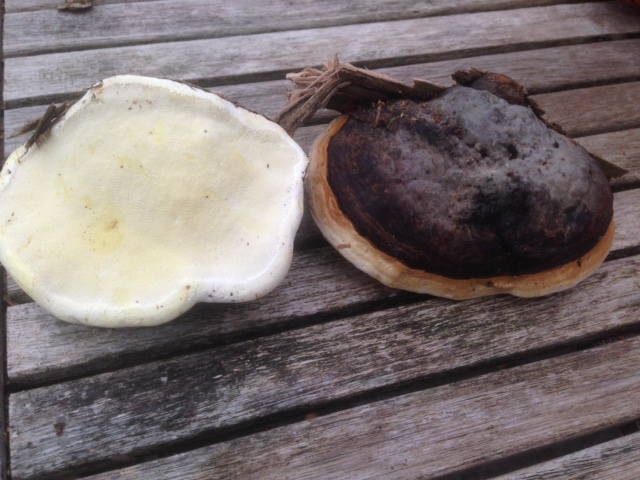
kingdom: Fungi
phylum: Basidiomycota
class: Agaricomycetes
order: Polyporales
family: Fomitopsidaceae
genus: Fomitopsis
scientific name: Fomitopsis pinicola
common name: randbæltet hovporesvamp
